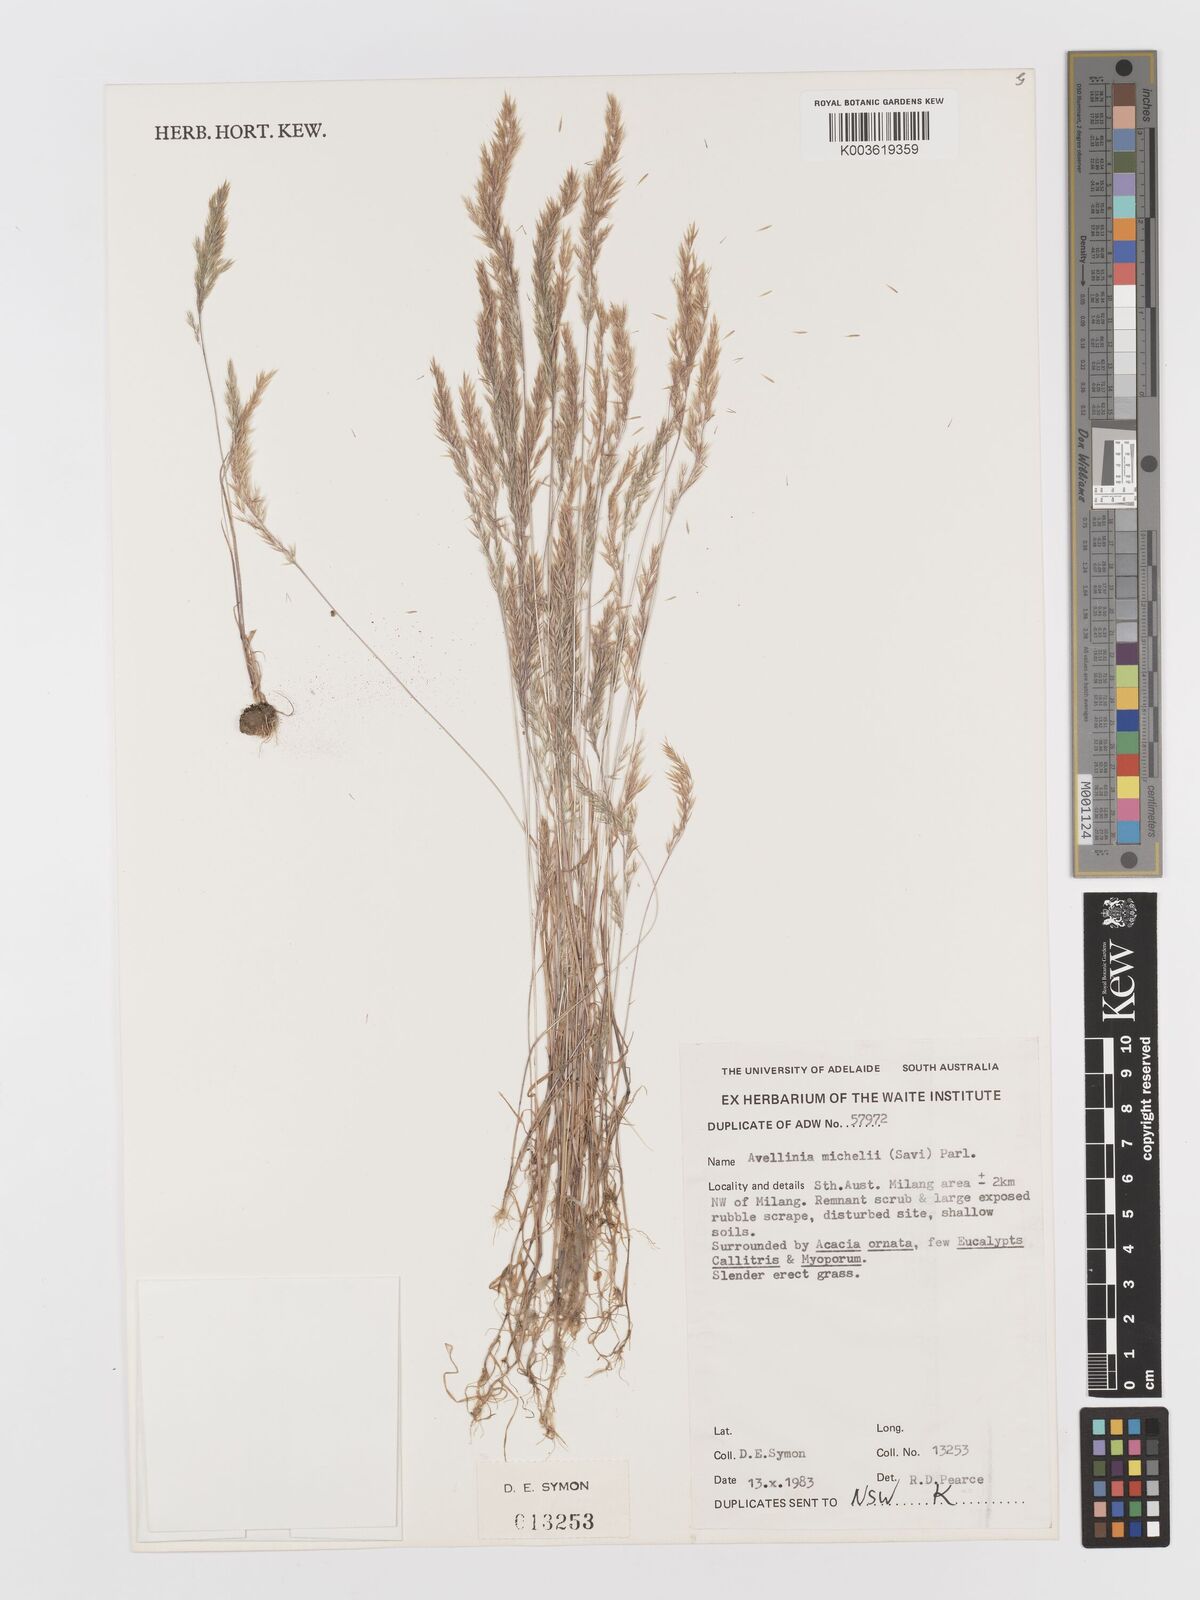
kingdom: Plantae
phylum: Tracheophyta
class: Liliopsida
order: Poales
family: Poaceae
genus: Rostraria
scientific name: Rostraria
